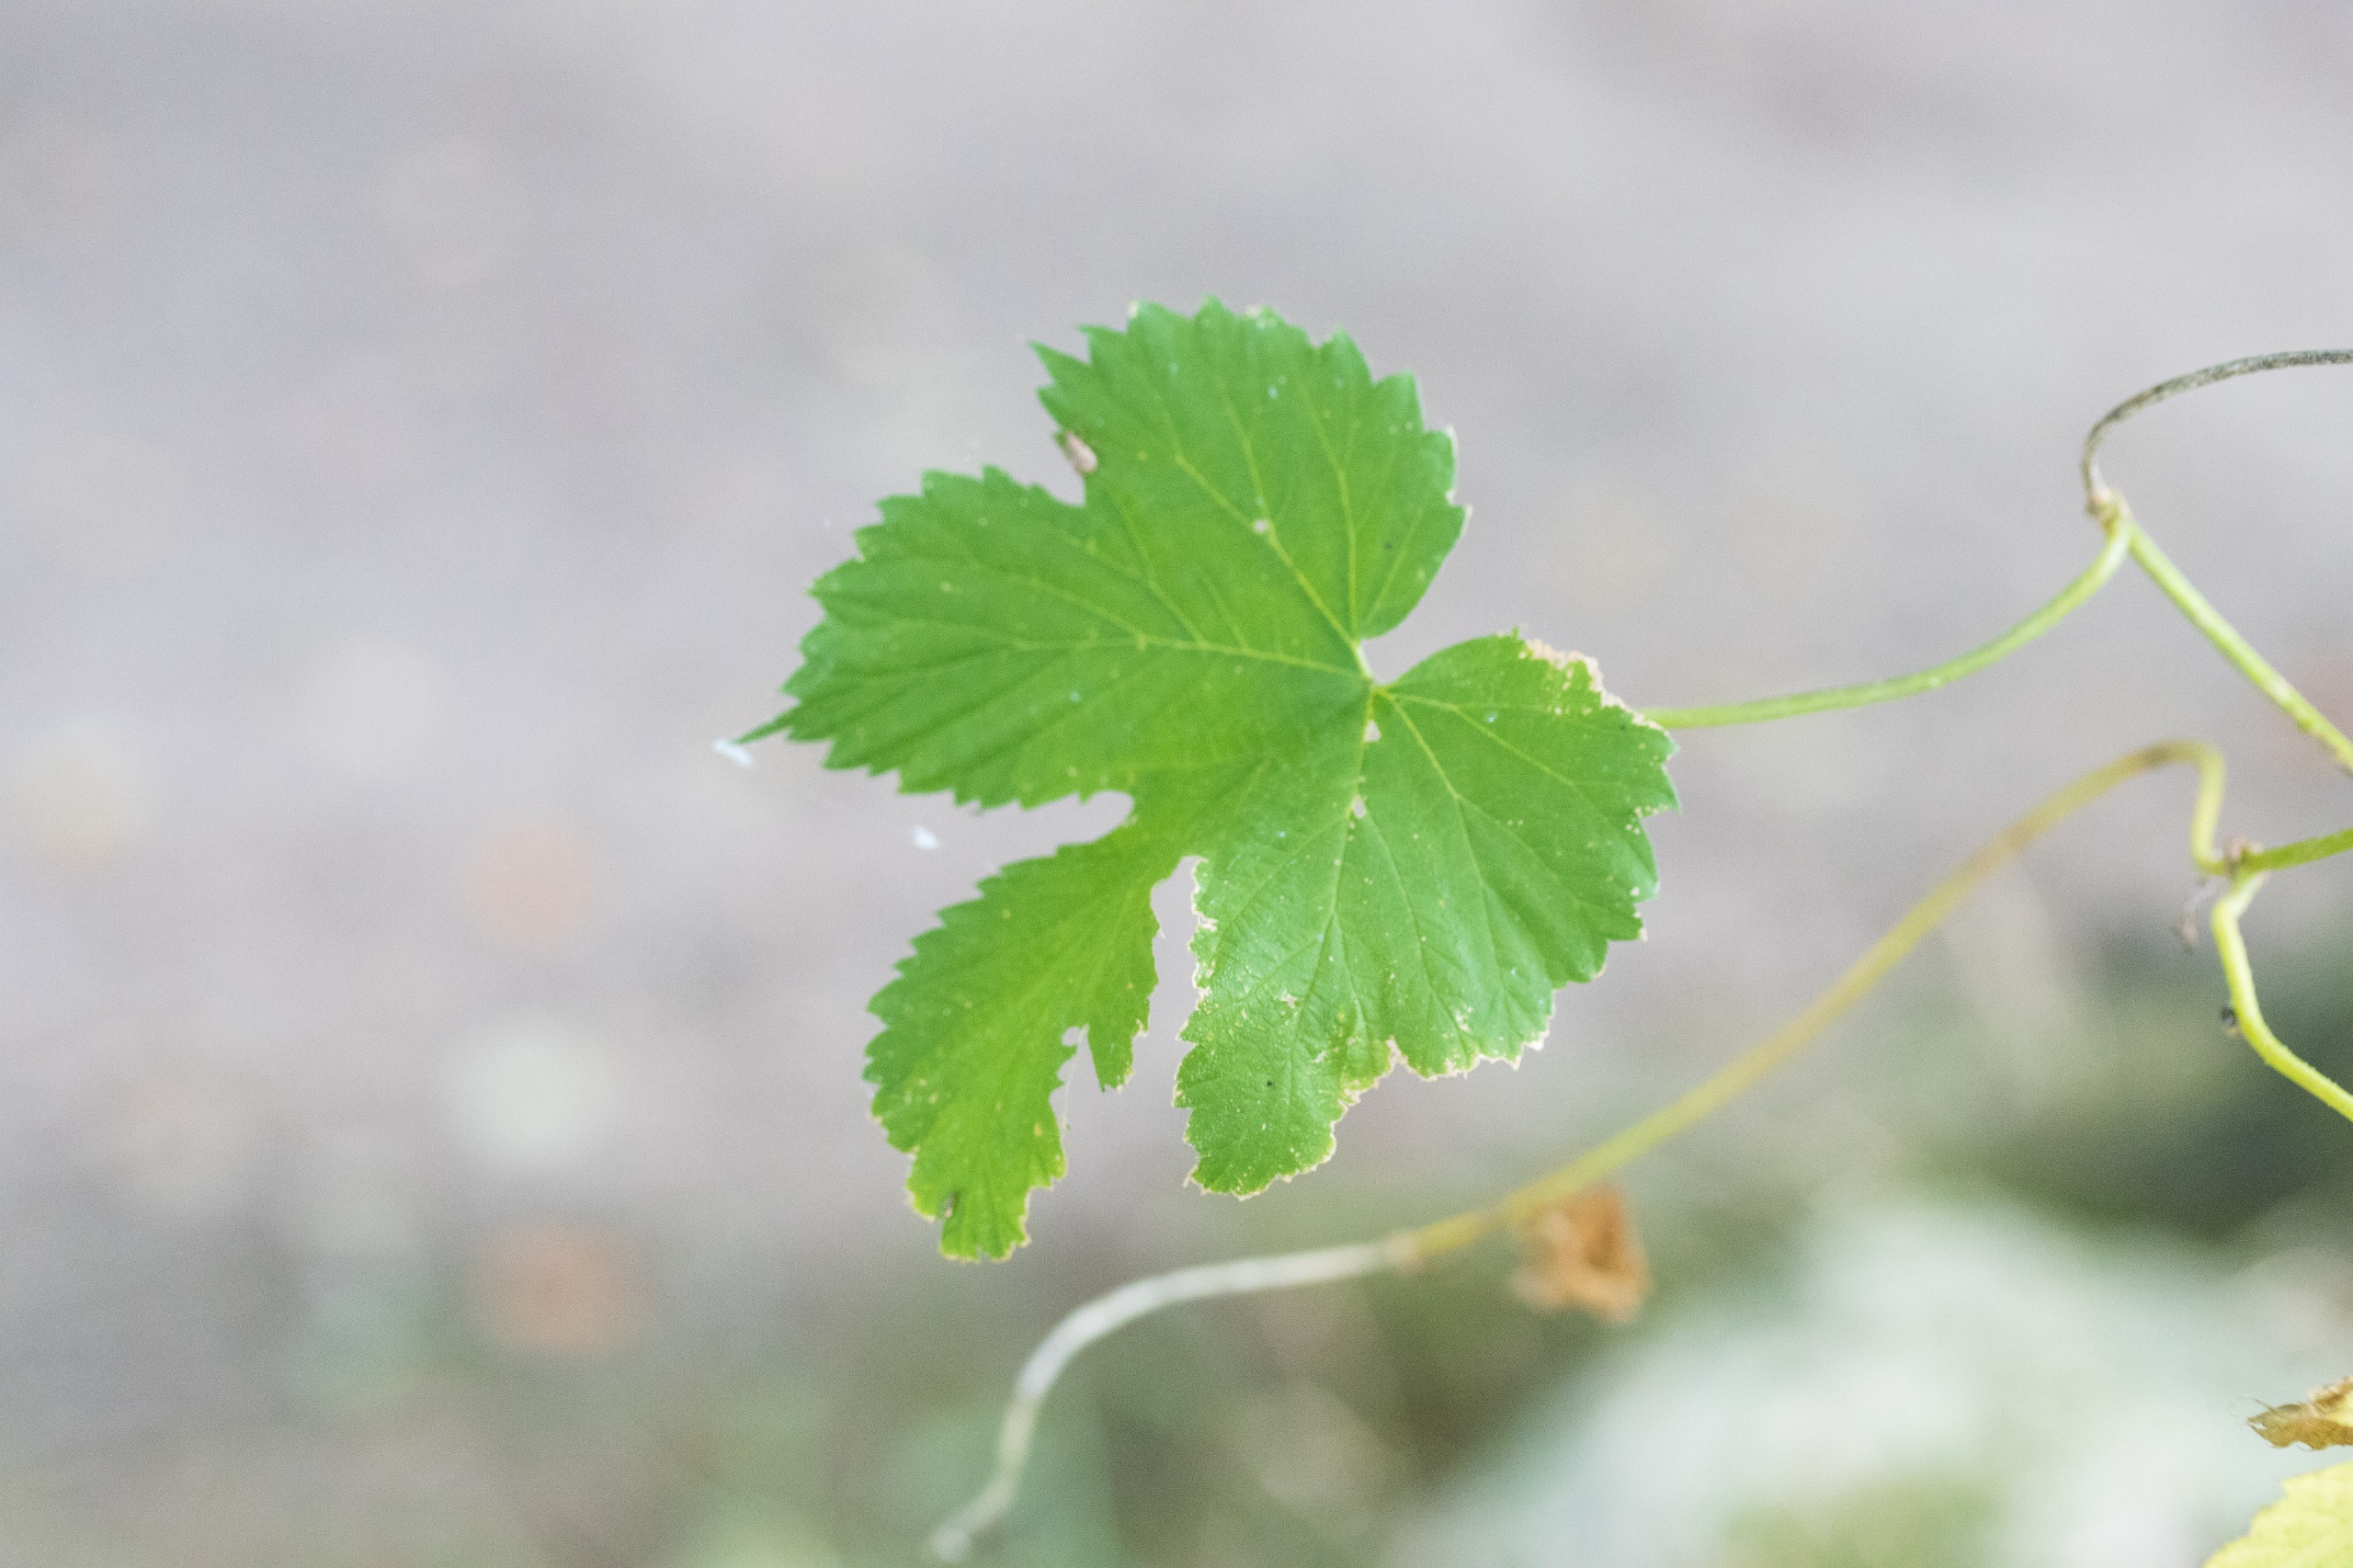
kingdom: Plantae
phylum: Tracheophyta
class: Magnoliopsida
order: Rosales
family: Cannabaceae
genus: Humulus
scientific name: Humulus lupulus
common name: Humle
